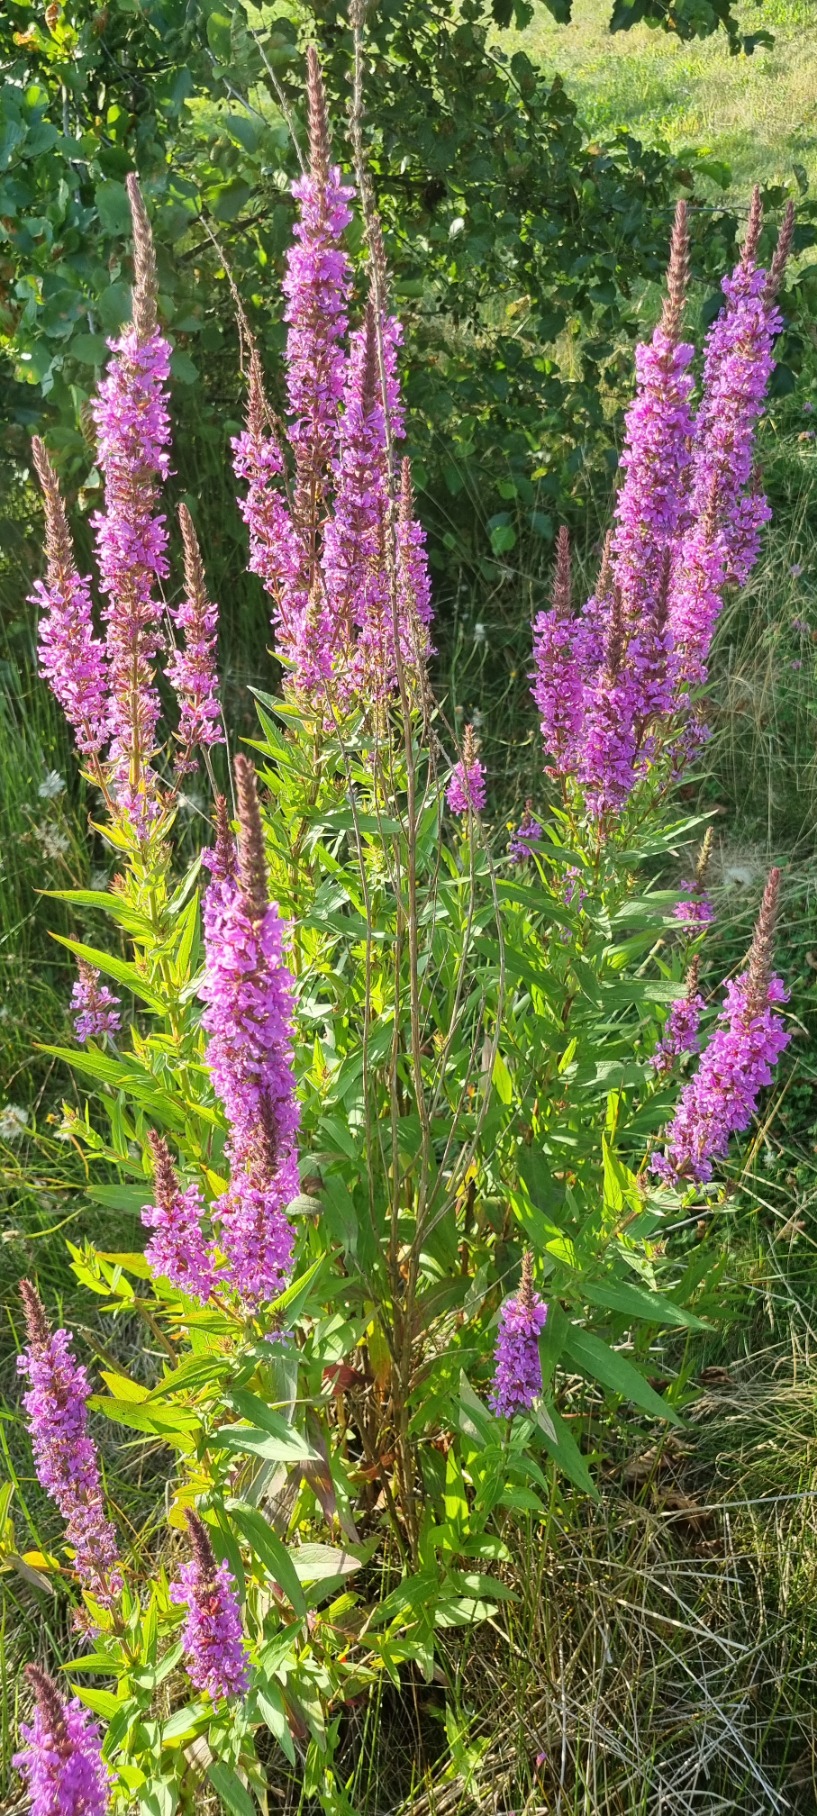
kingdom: Plantae
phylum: Tracheophyta
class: Magnoliopsida
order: Myrtales
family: Lythraceae
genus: Lythrum
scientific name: Lythrum salicaria
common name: Kattehale
